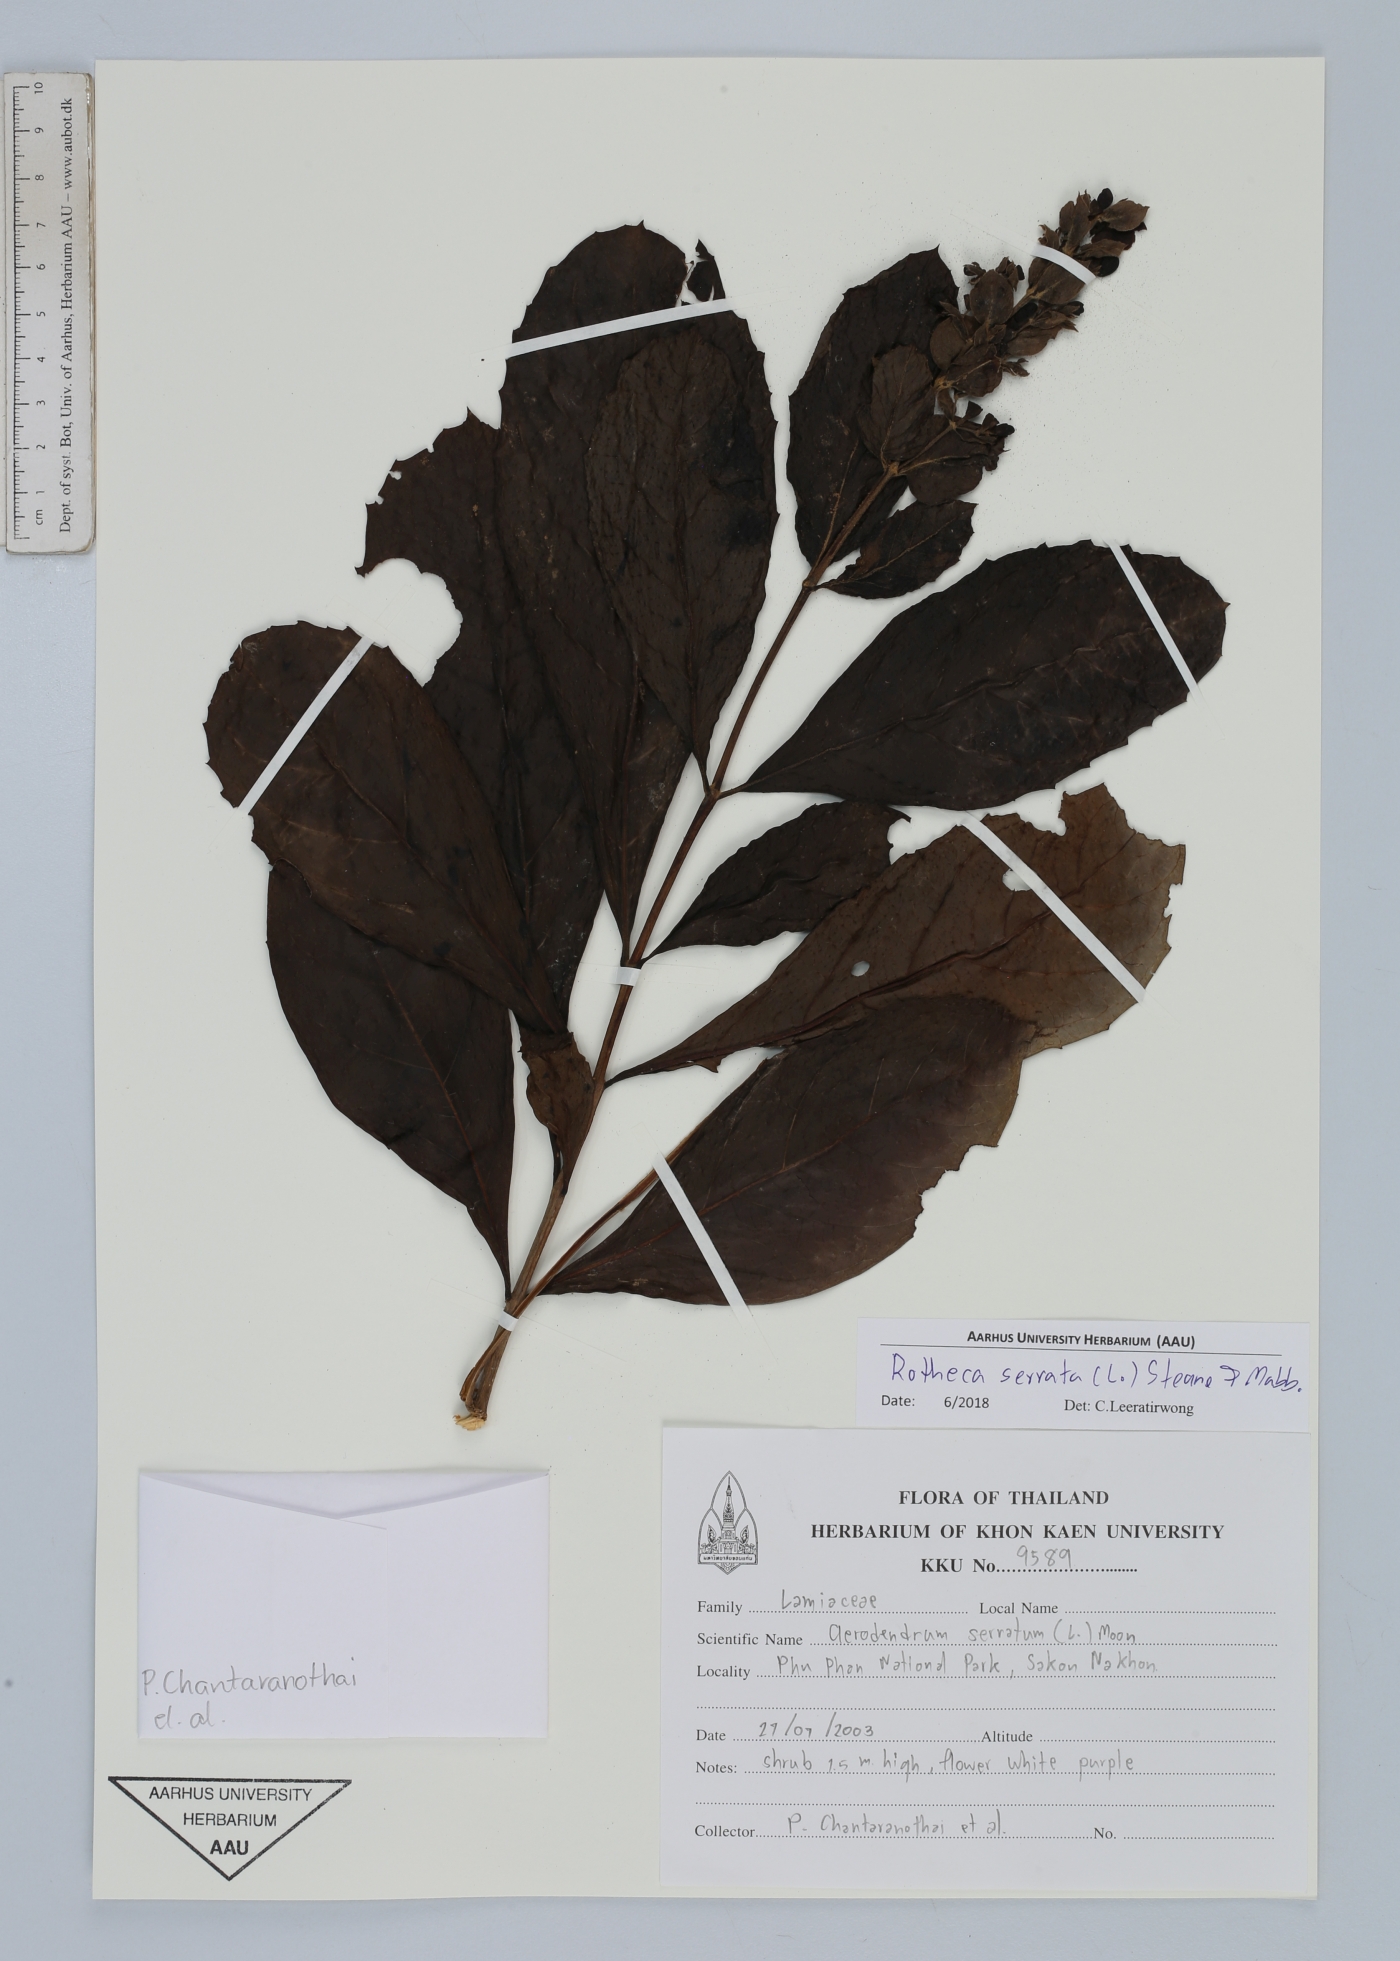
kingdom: Plantae
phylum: Tracheophyta
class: Magnoliopsida
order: Lamiales
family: Lamiaceae
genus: Rotheca
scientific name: Rotheca serrata
